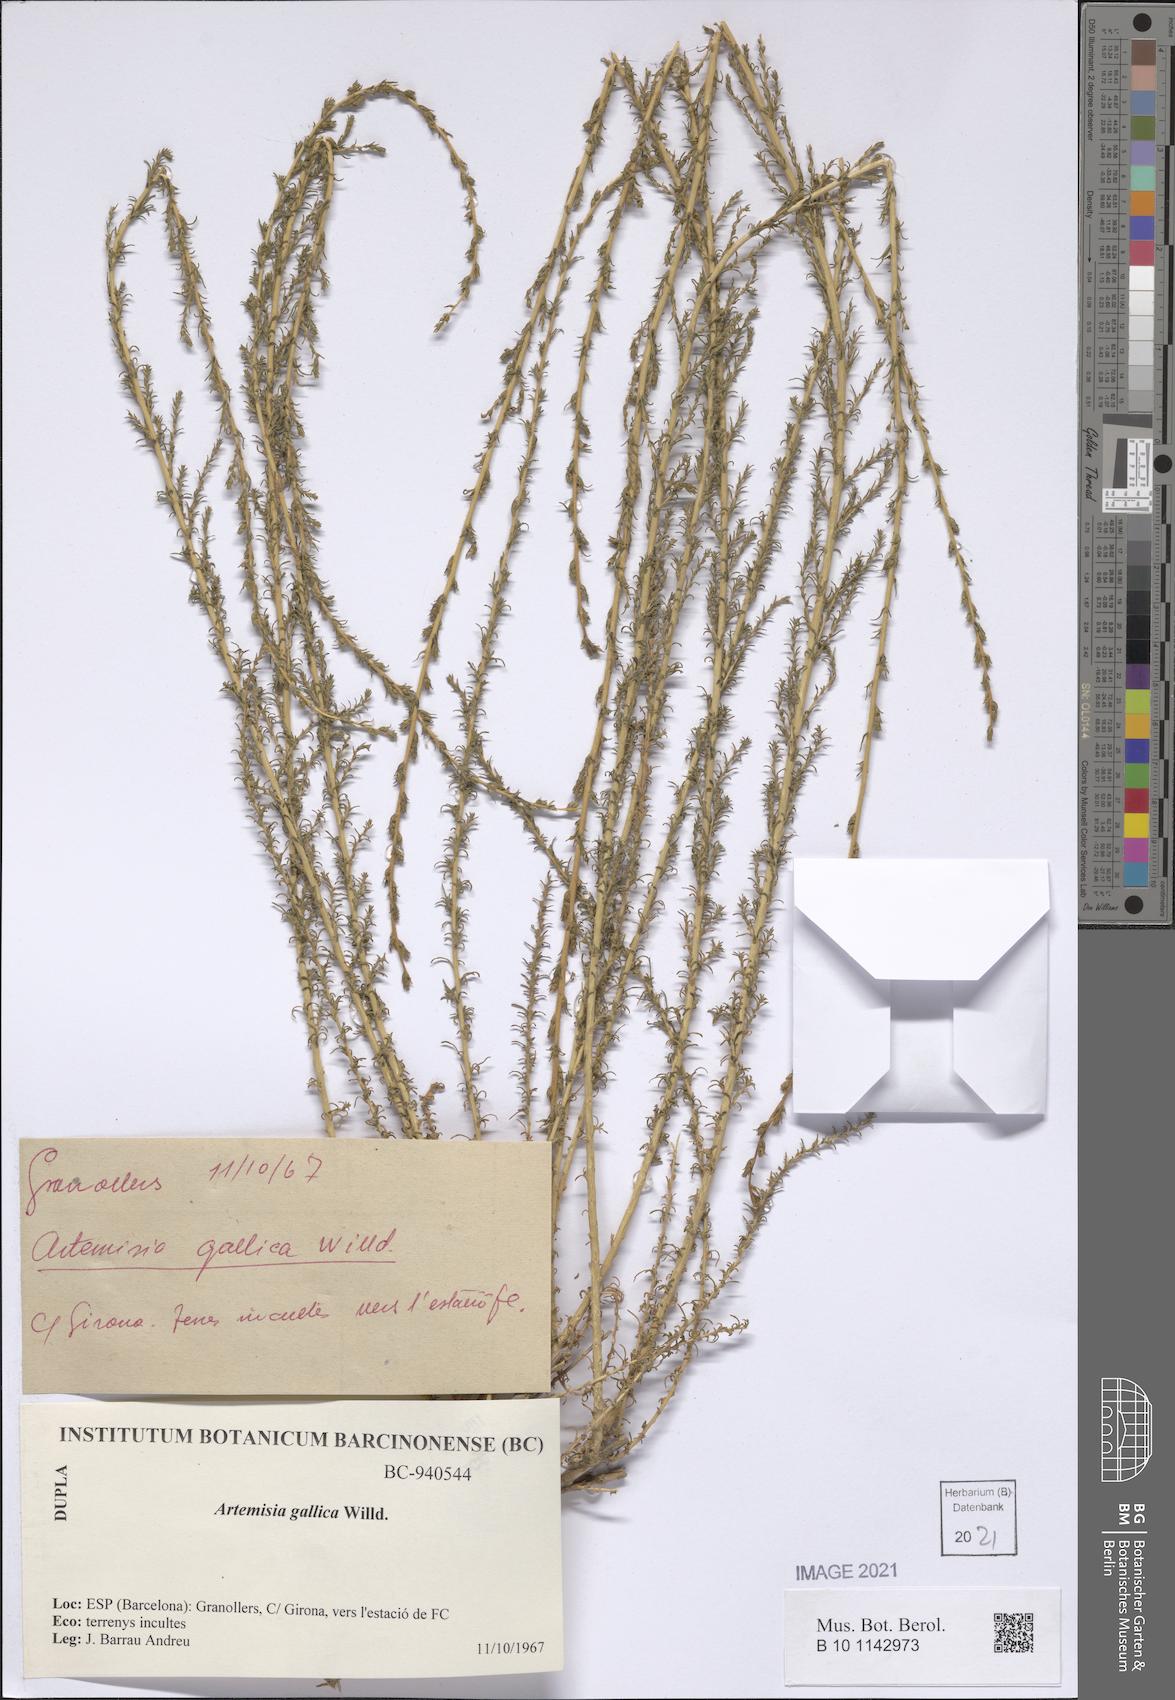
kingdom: Plantae
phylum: Tracheophyta
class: Magnoliopsida
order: Asterales
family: Asteraceae
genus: Artemisia
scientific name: Artemisia caerulescens
